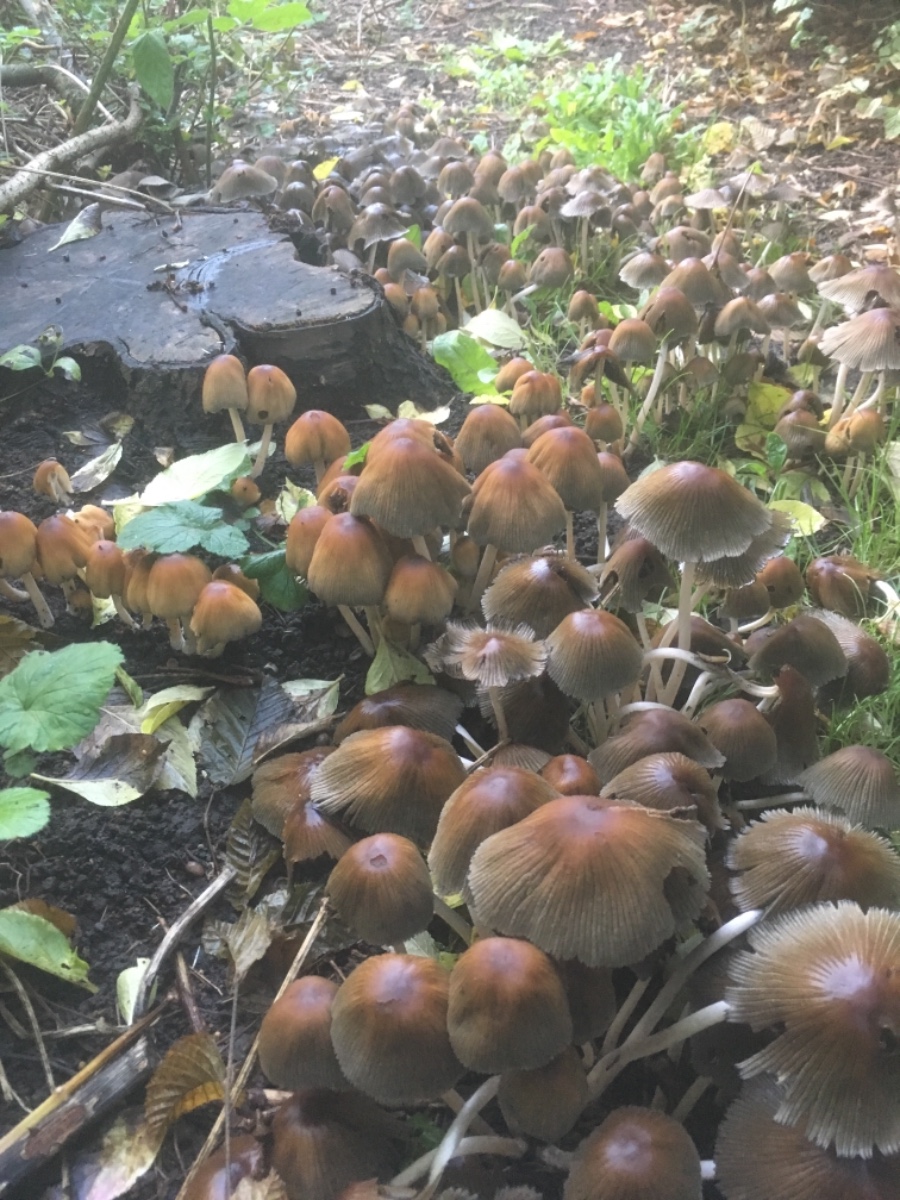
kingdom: Fungi
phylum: Basidiomycota
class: Agaricomycetes
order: Agaricales
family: Psathyrellaceae
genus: Coprinellus
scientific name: Coprinellus micaceus
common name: glimmer-blækhat
